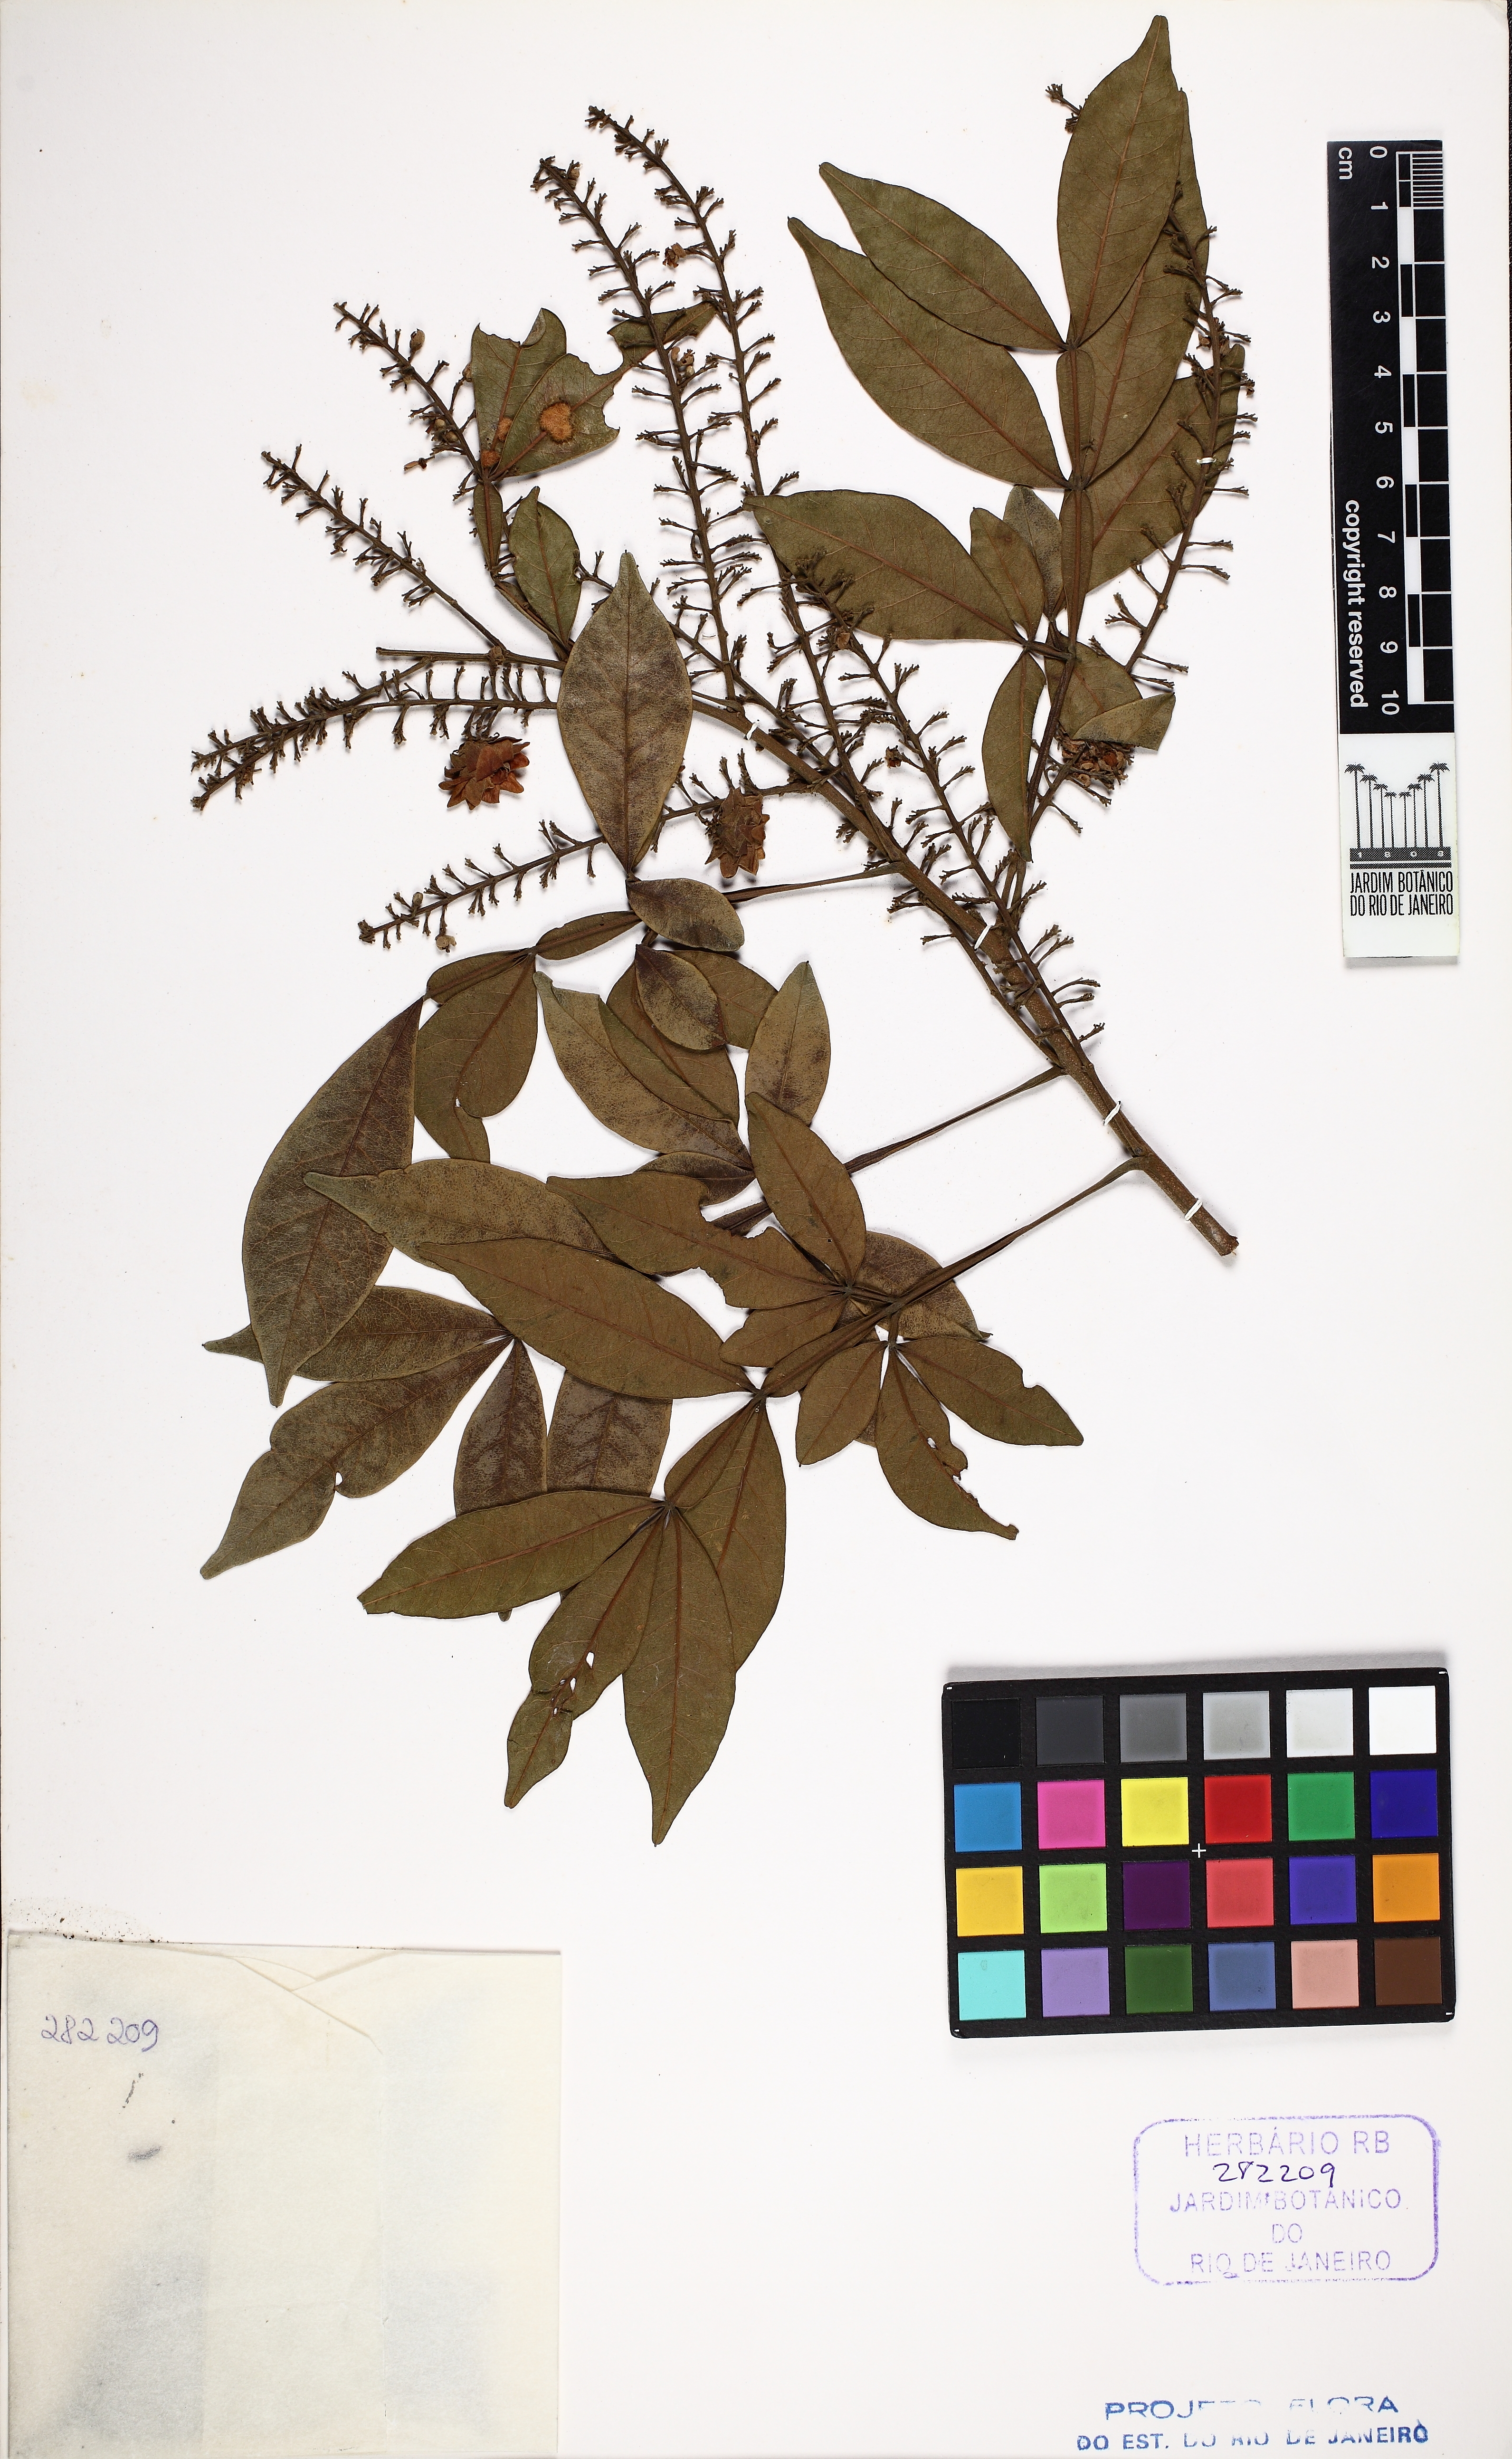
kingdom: Plantae
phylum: Tracheophyta
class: Magnoliopsida
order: Sapindales
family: Sapindaceae
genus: Paullinia
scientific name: Paullinia carpopodea
